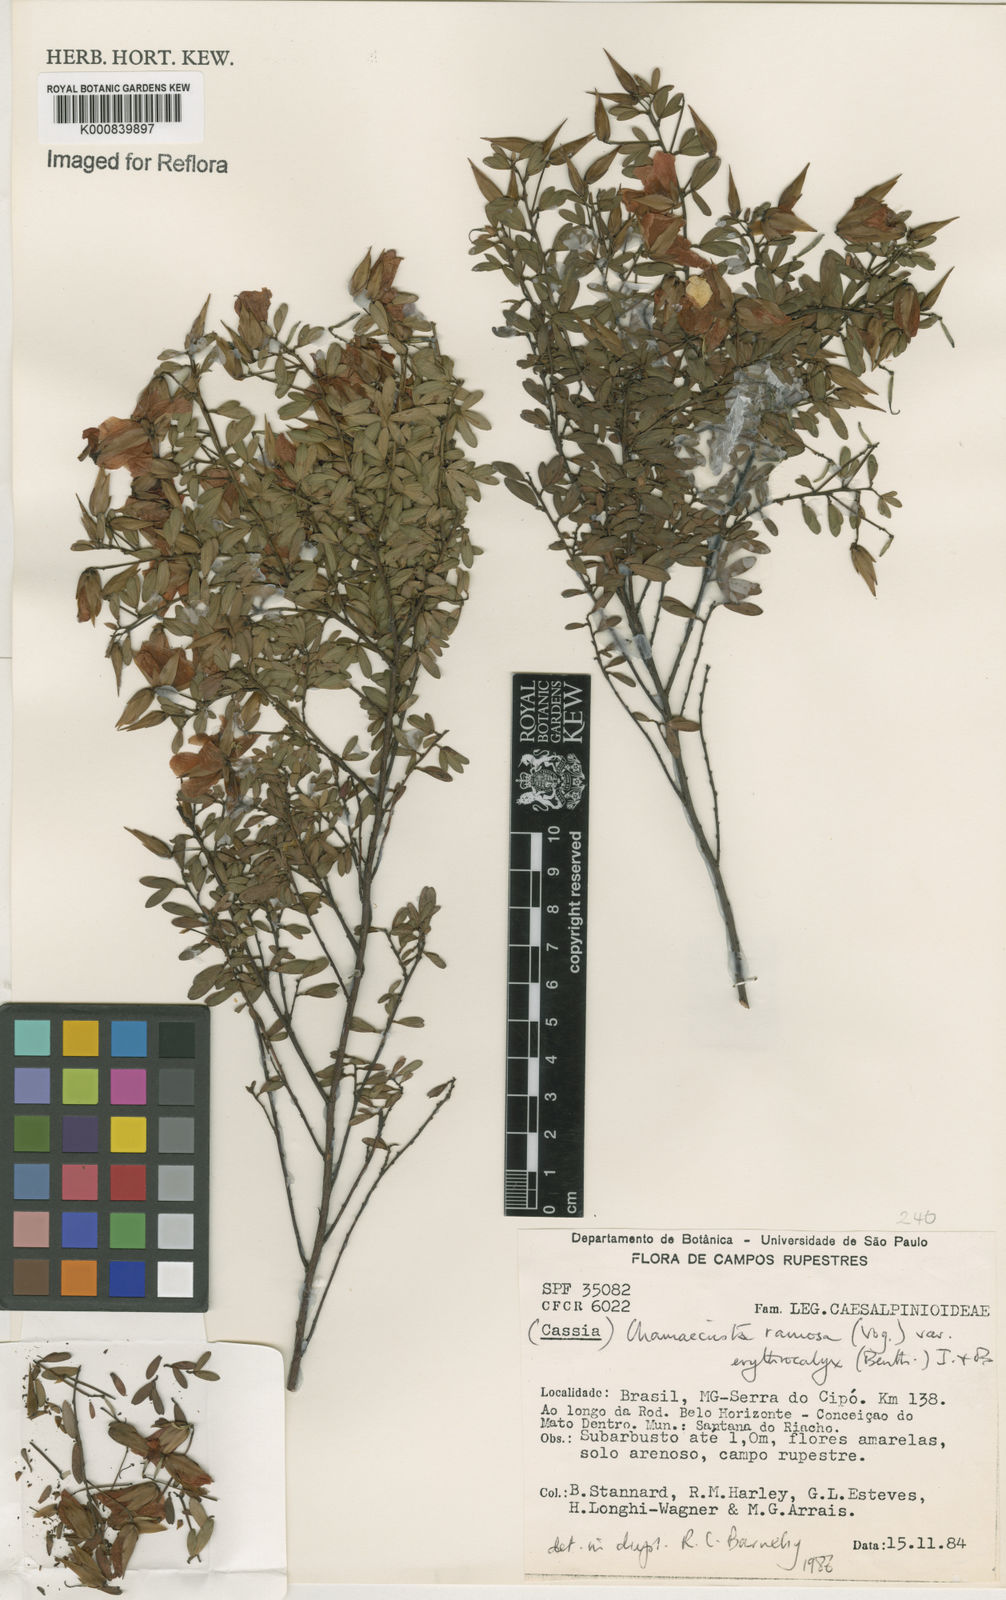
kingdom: Plantae
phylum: Tracheophyta
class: Magnoliopsida
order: Fabales
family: Fabaceae
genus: Chamaecrista
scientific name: Chamaecrista ramosa
